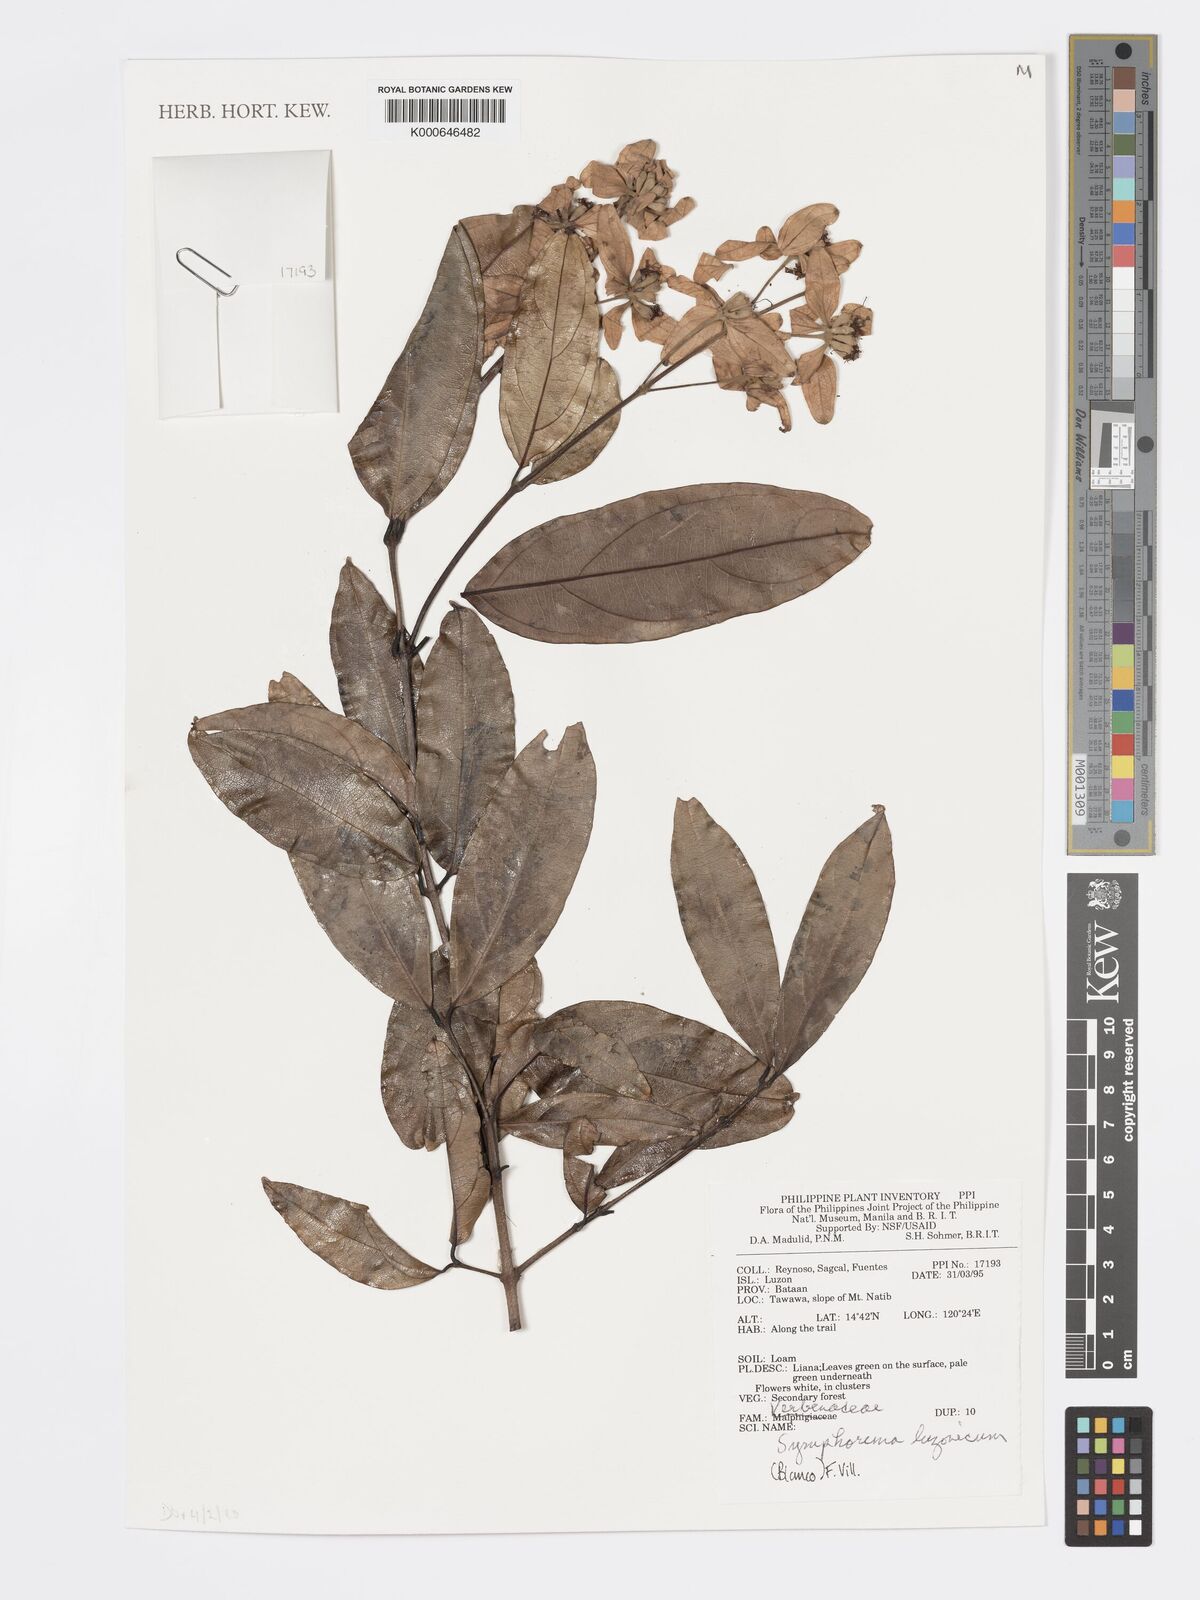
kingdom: Plantae
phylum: Tracheophyta
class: Magnoliopsida
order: Lamiales
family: Lamiaceae
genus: Symphorema
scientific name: Symphorema luzonicum
